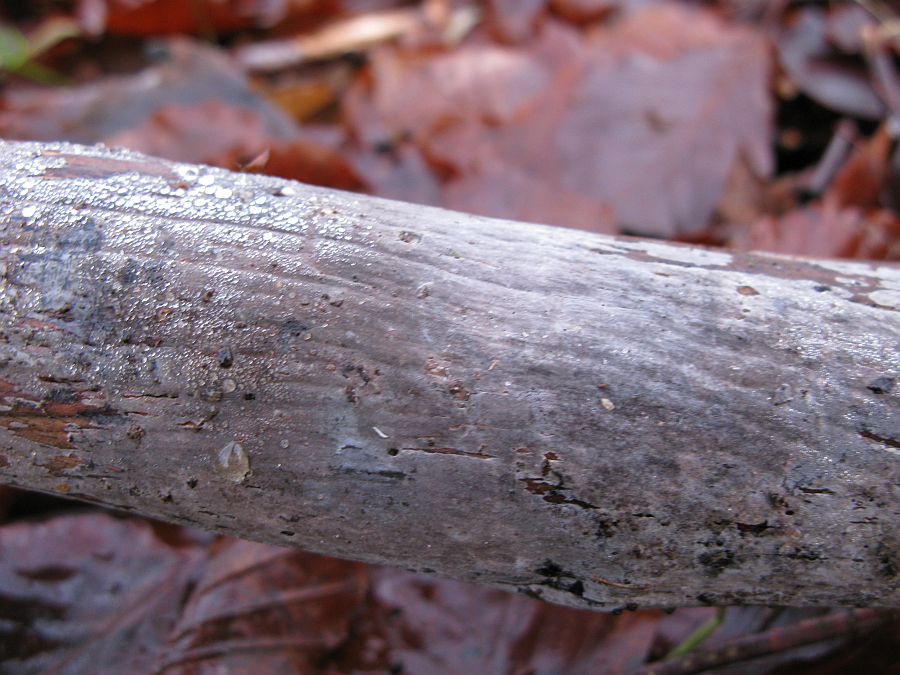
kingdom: Fungi
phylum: Basidiomycota
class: Agaricomycetes
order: Russulales
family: Peniophoraceae
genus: Peniophora
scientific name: Peniophora lycii
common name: grynet voksskind
